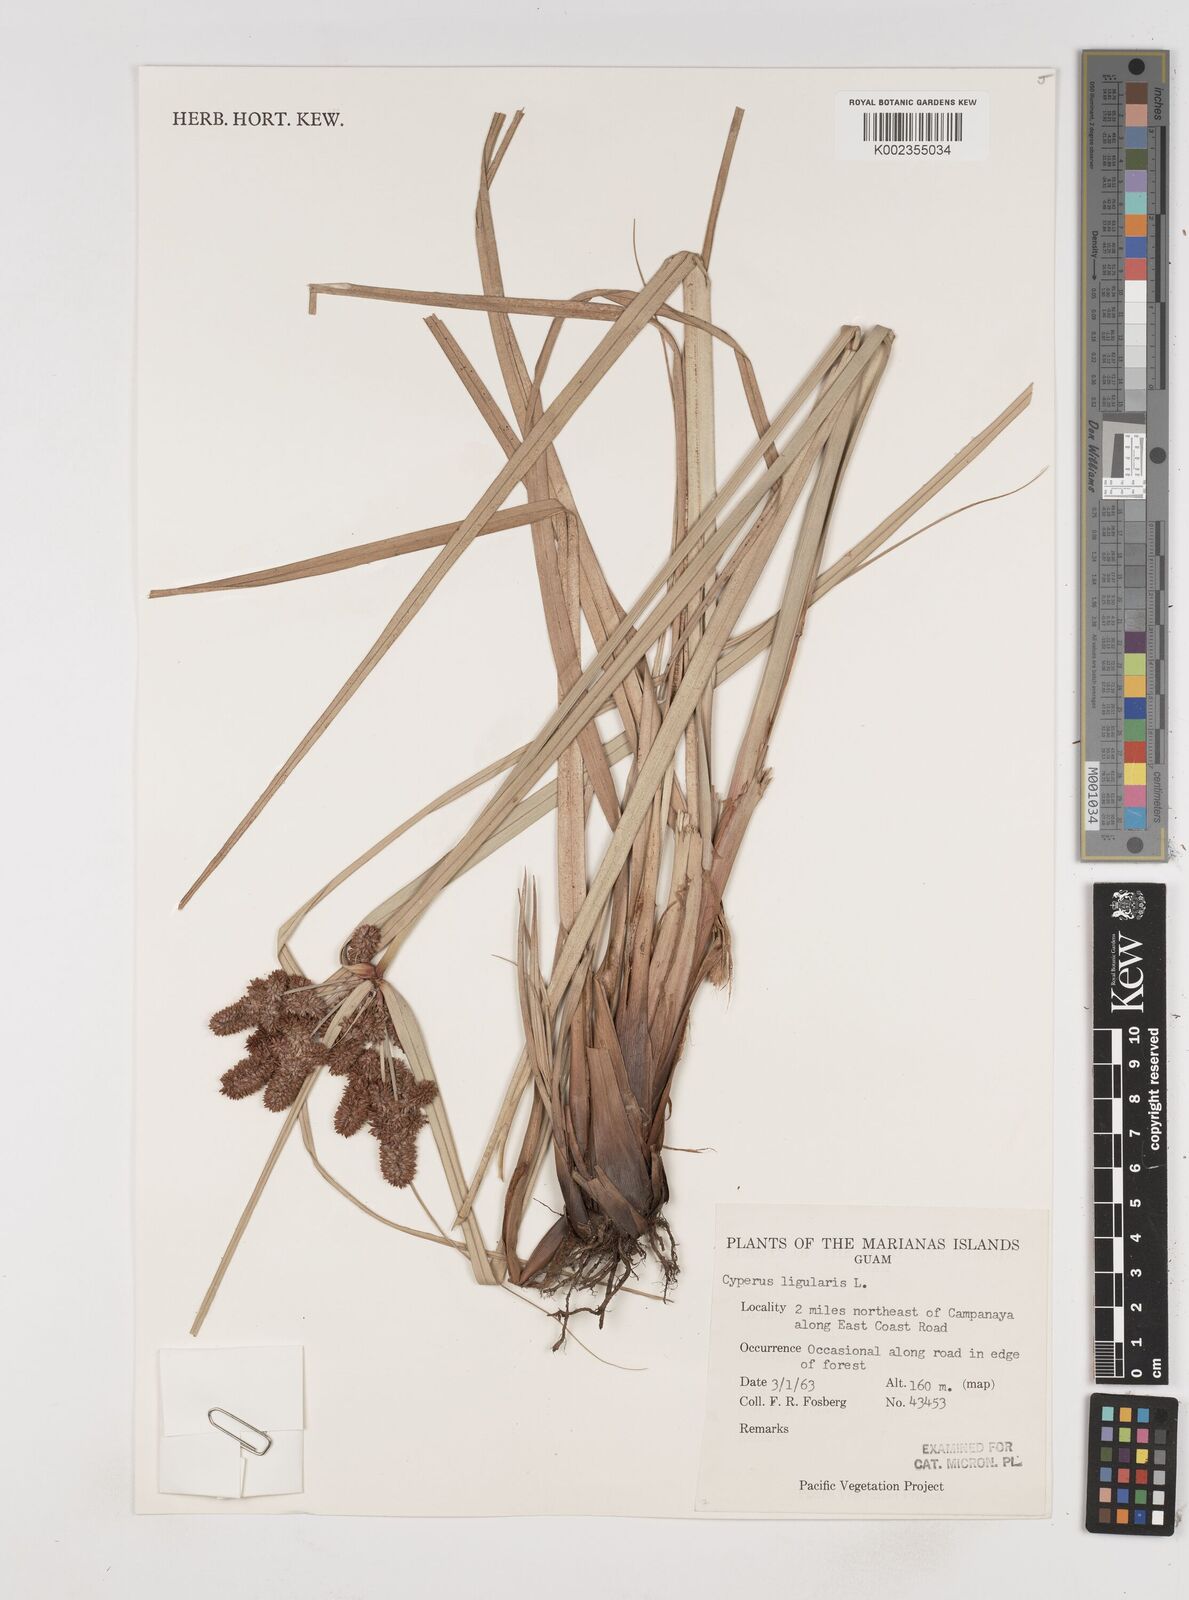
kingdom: Plantae
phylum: Tracheophyta
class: Liliopsida
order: Poales
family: Cyperaceae
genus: Cyperus
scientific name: Cyperus ligularis
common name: Swamp flat sedge
